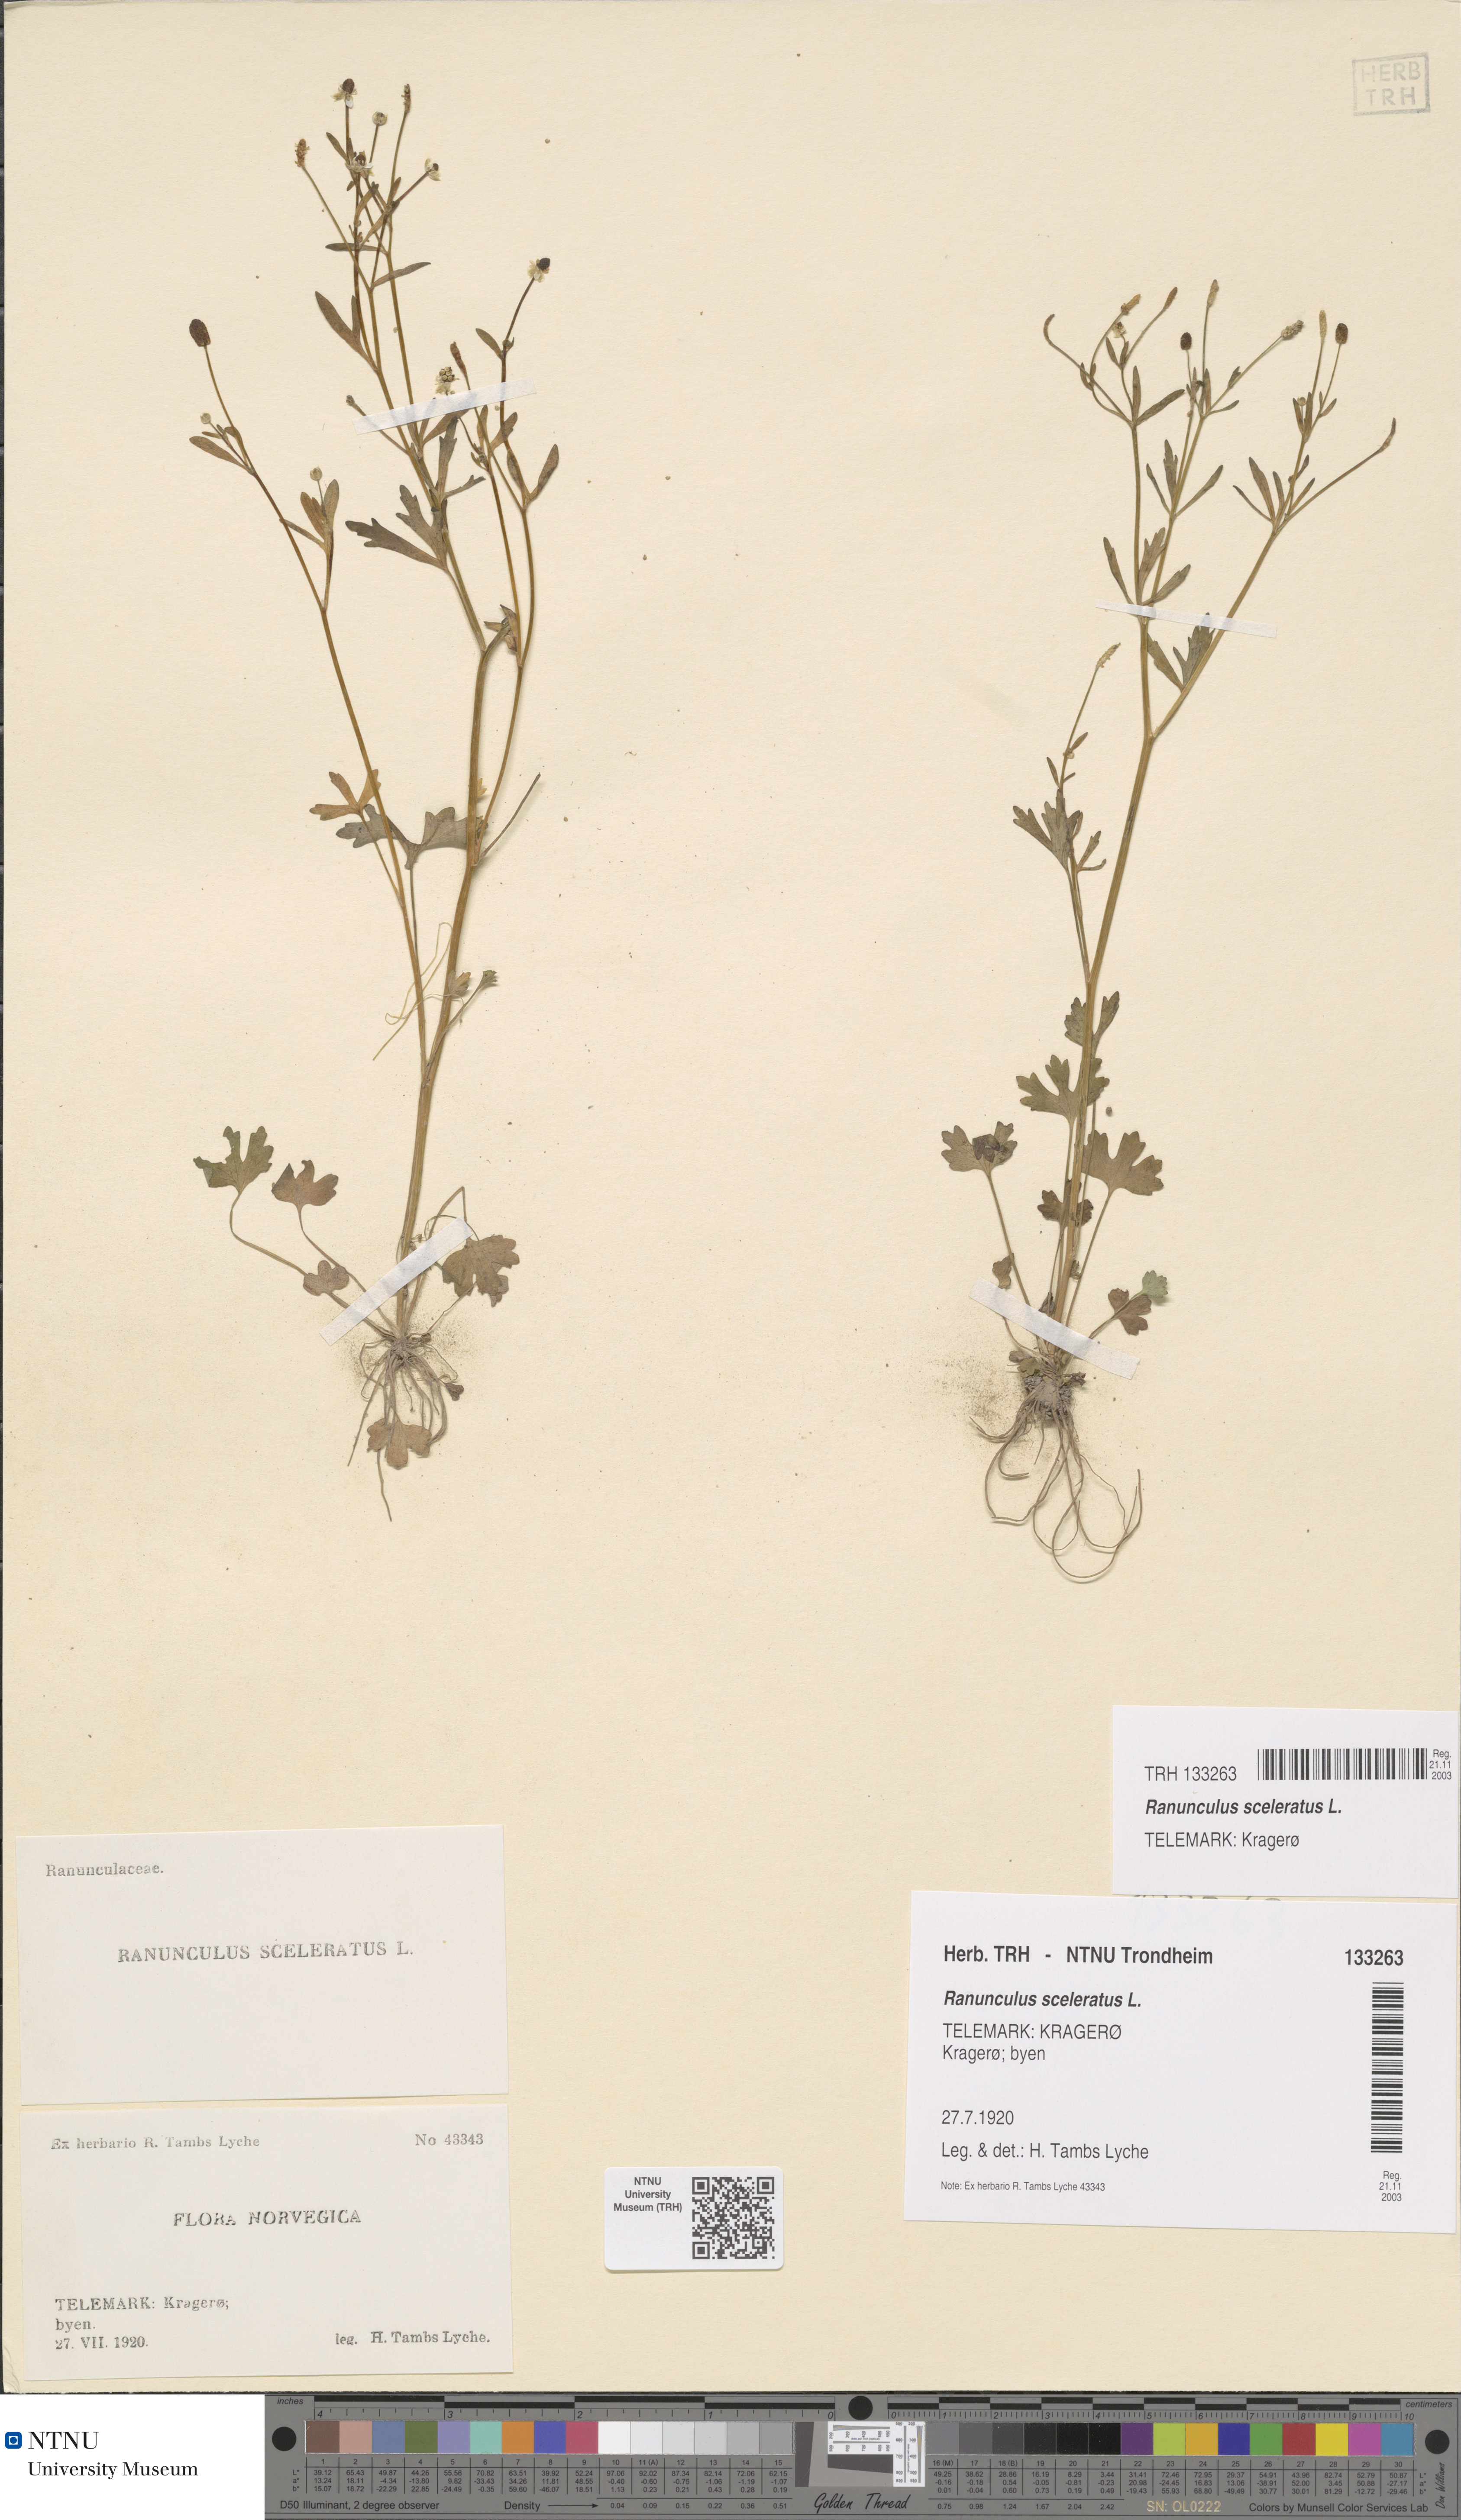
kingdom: Plantae
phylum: Tracheophyta
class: Magnoliopsida
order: Ranunculales
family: Ranunculaceae
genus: Ranunculus
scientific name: Ranunculus sceleratus
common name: Celery-leaved buttercup
